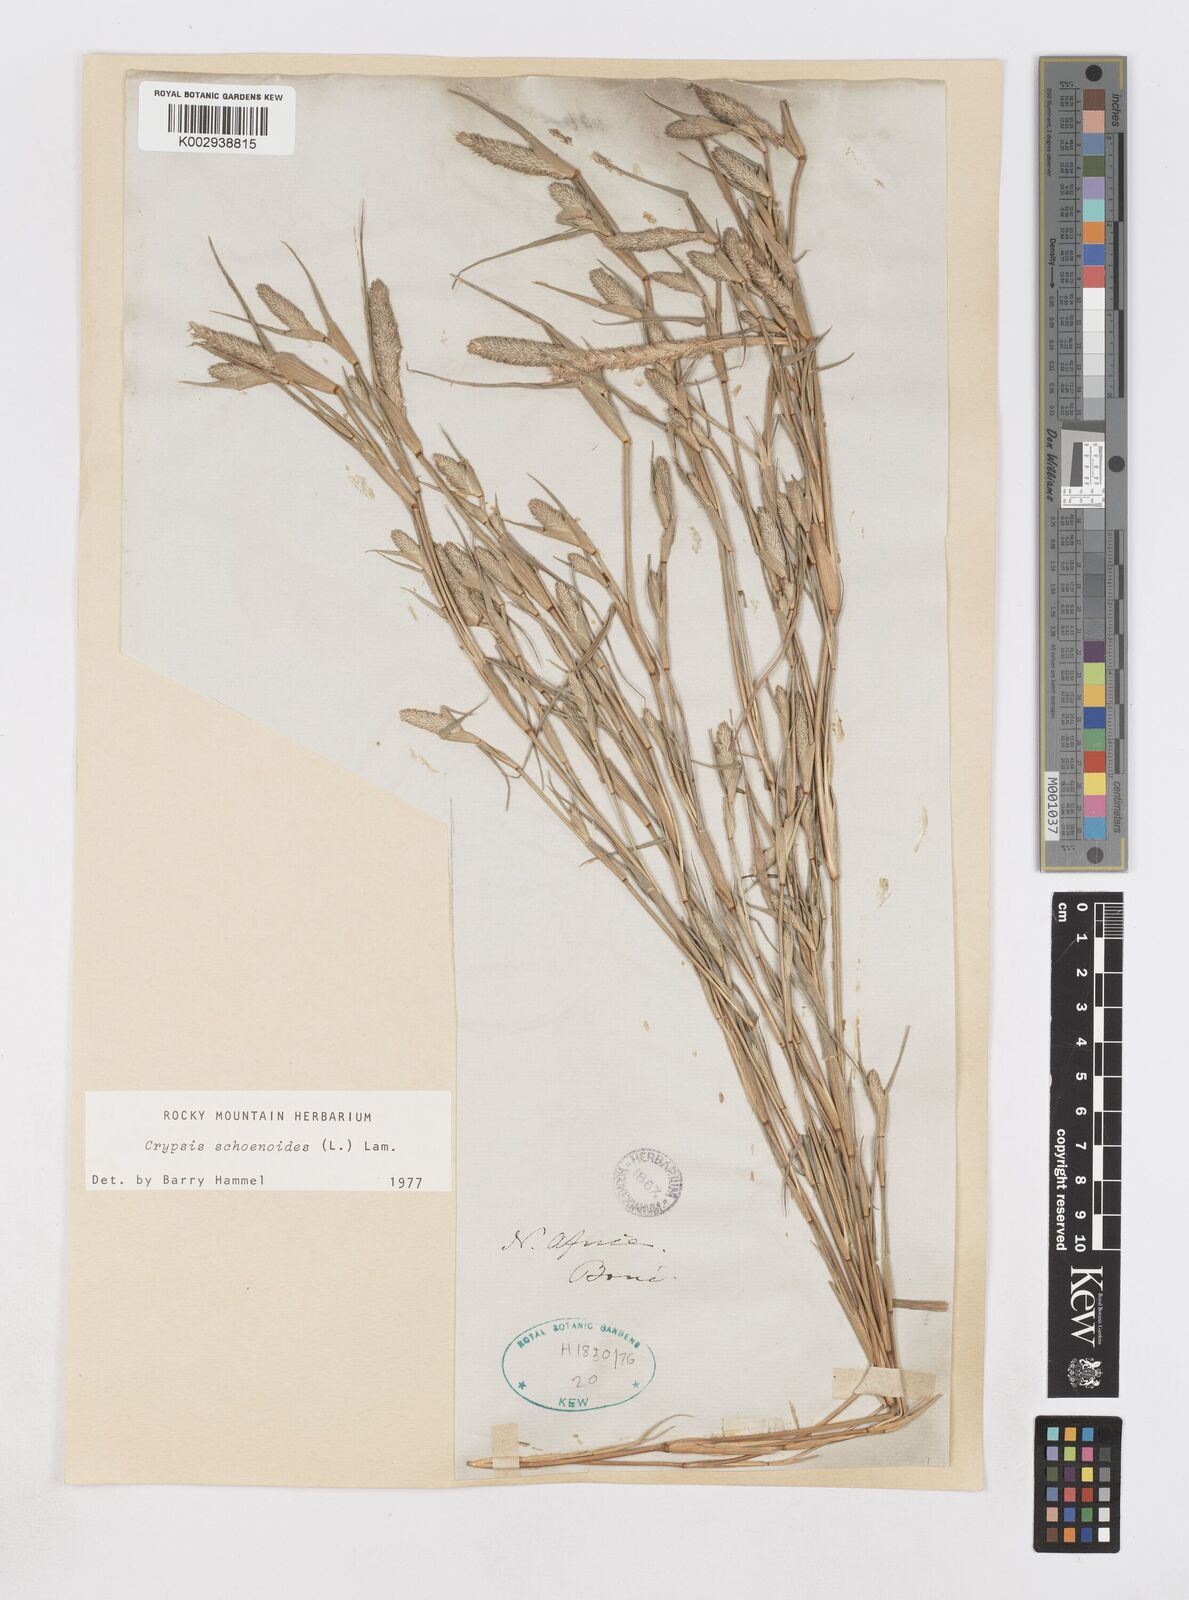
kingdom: Plantae
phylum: Tracheophyta
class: Liliopsida
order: Poales
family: Poaceae
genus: Sporobolus
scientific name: Sporobolus schoenoides
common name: Rush-like timothy
